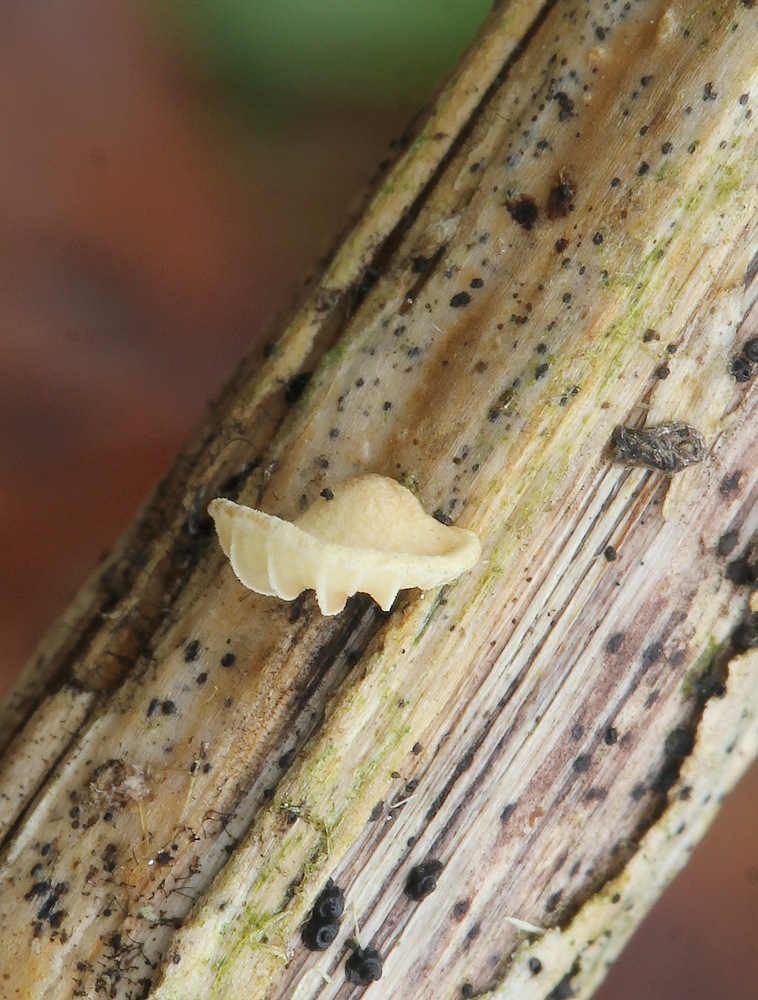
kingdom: Fungi
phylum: Basidiomycota
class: Agaricomycetes
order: Agaricales
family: Crepidotaceae
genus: Crepidotus
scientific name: Crepidotus luteolus
